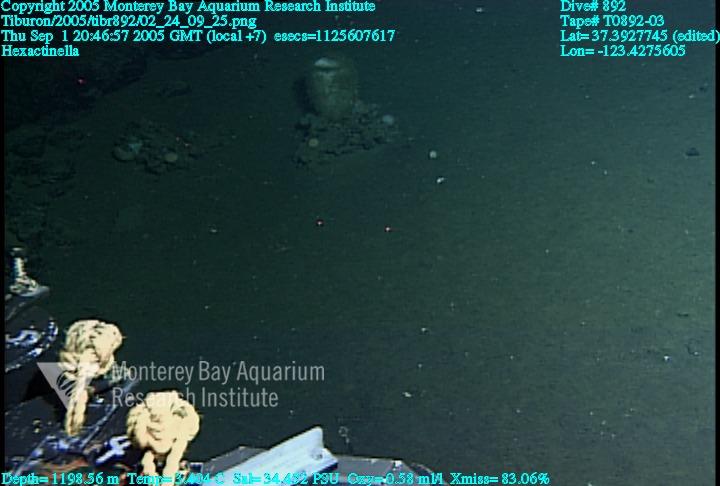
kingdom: Animalia
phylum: Porifera
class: Hexactinellida
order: Sceptrulophora
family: Tretodictyidae
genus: Hexactinella
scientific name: Hexactinella
